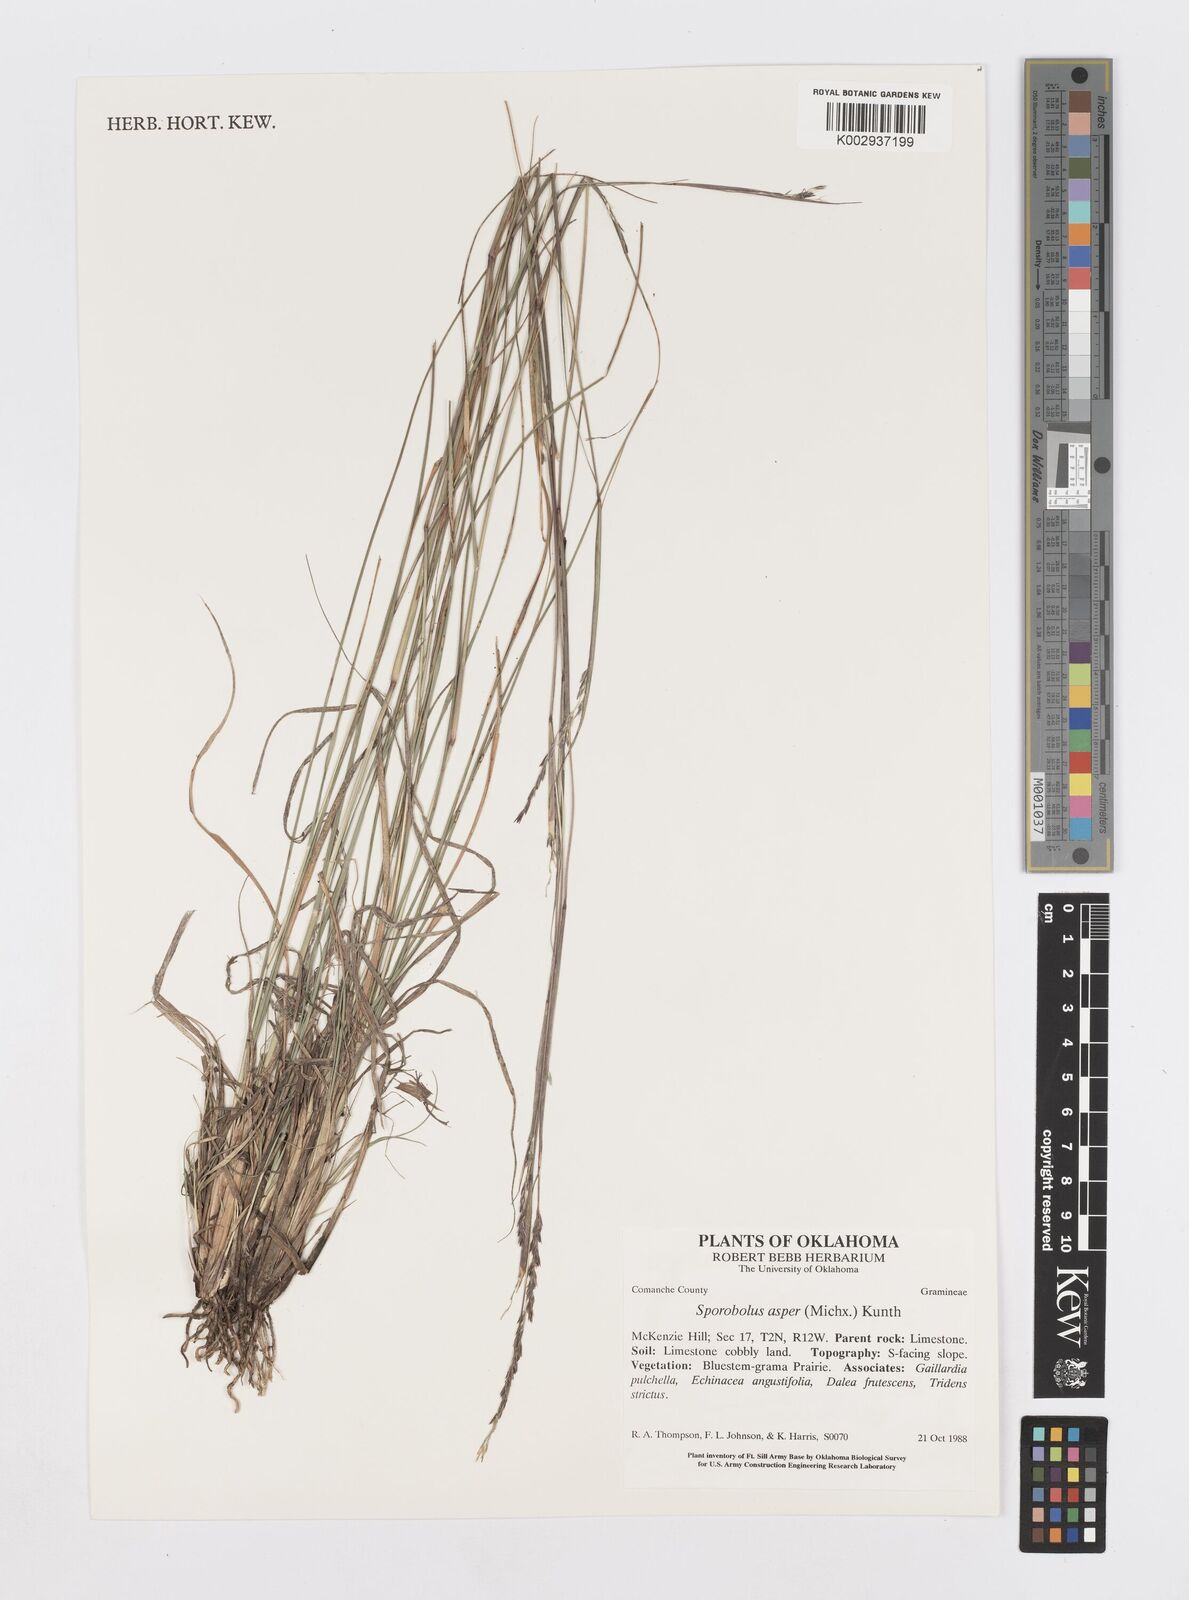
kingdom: Plantae
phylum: Tracheophyta
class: Liliopsida
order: Poales
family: Poaceae
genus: Sporobolus
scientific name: Sporobolus compositus
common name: Rough dropseed
